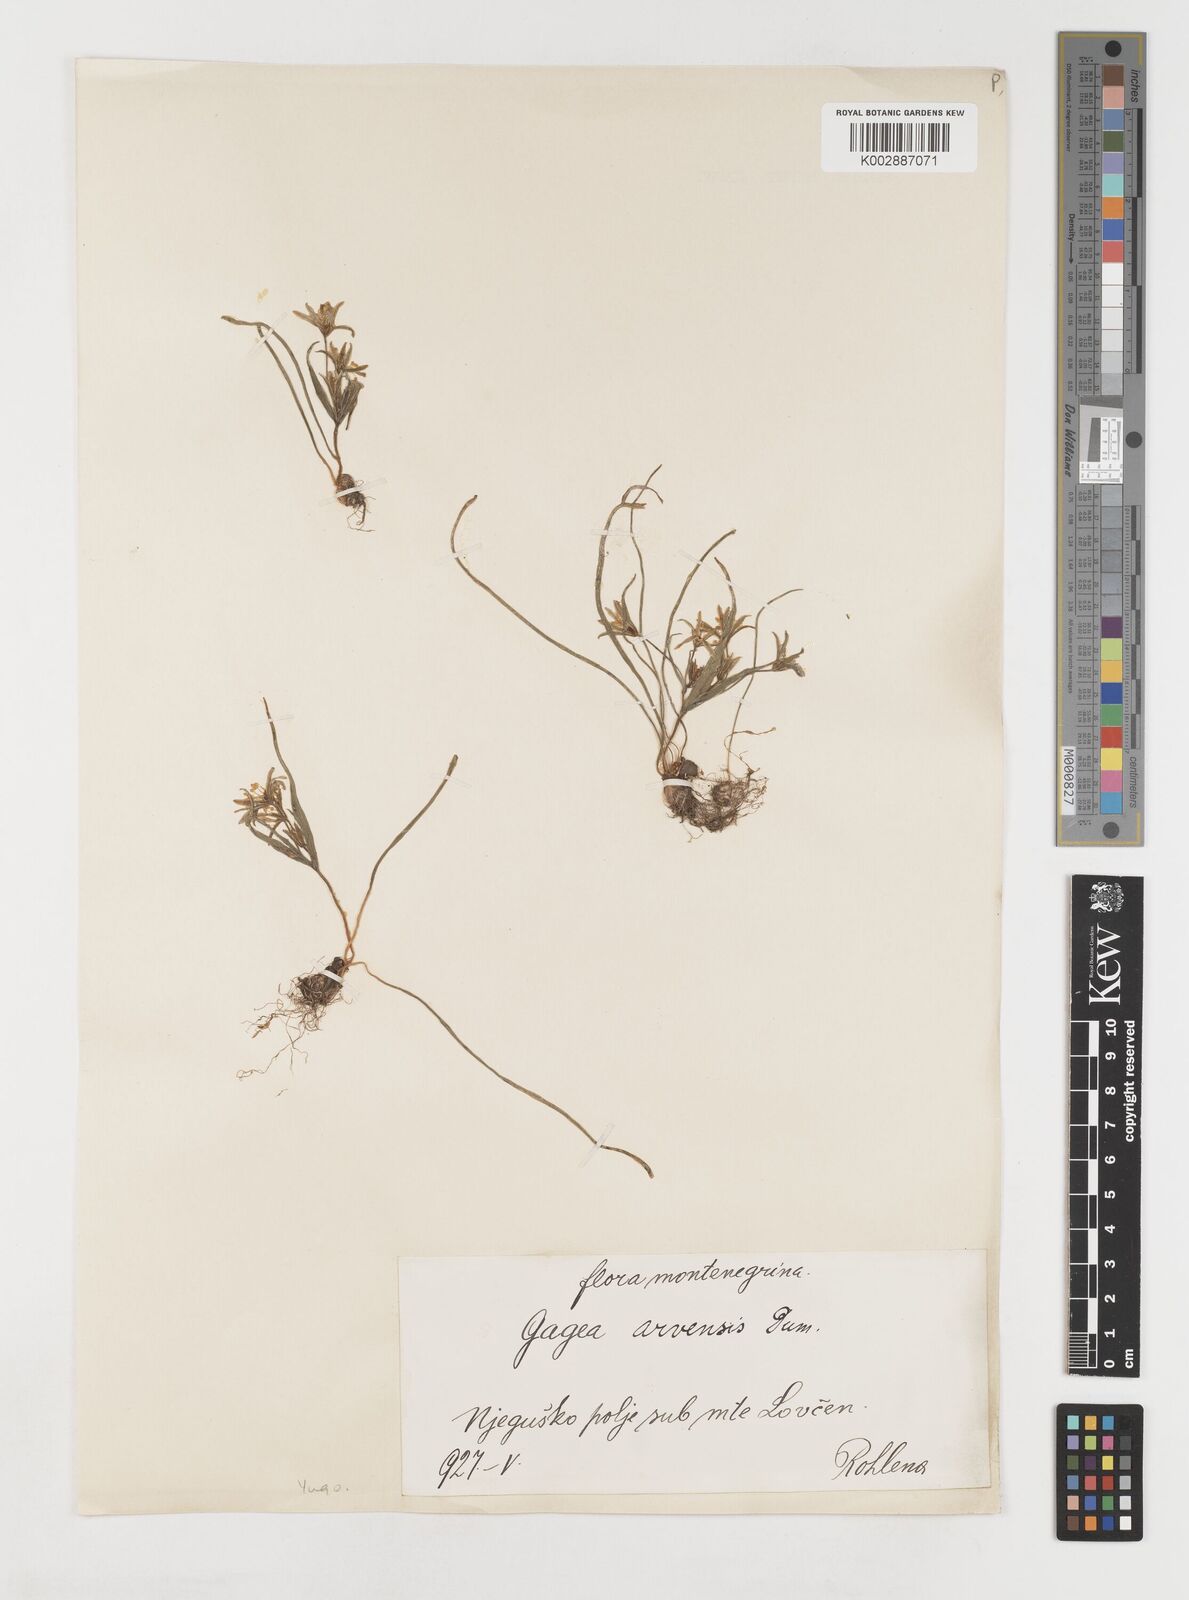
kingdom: Plantae
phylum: Tracheophyta
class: Liliopsida
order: Liliales
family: Liliaceae
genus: Gagea
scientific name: Gagea minima
